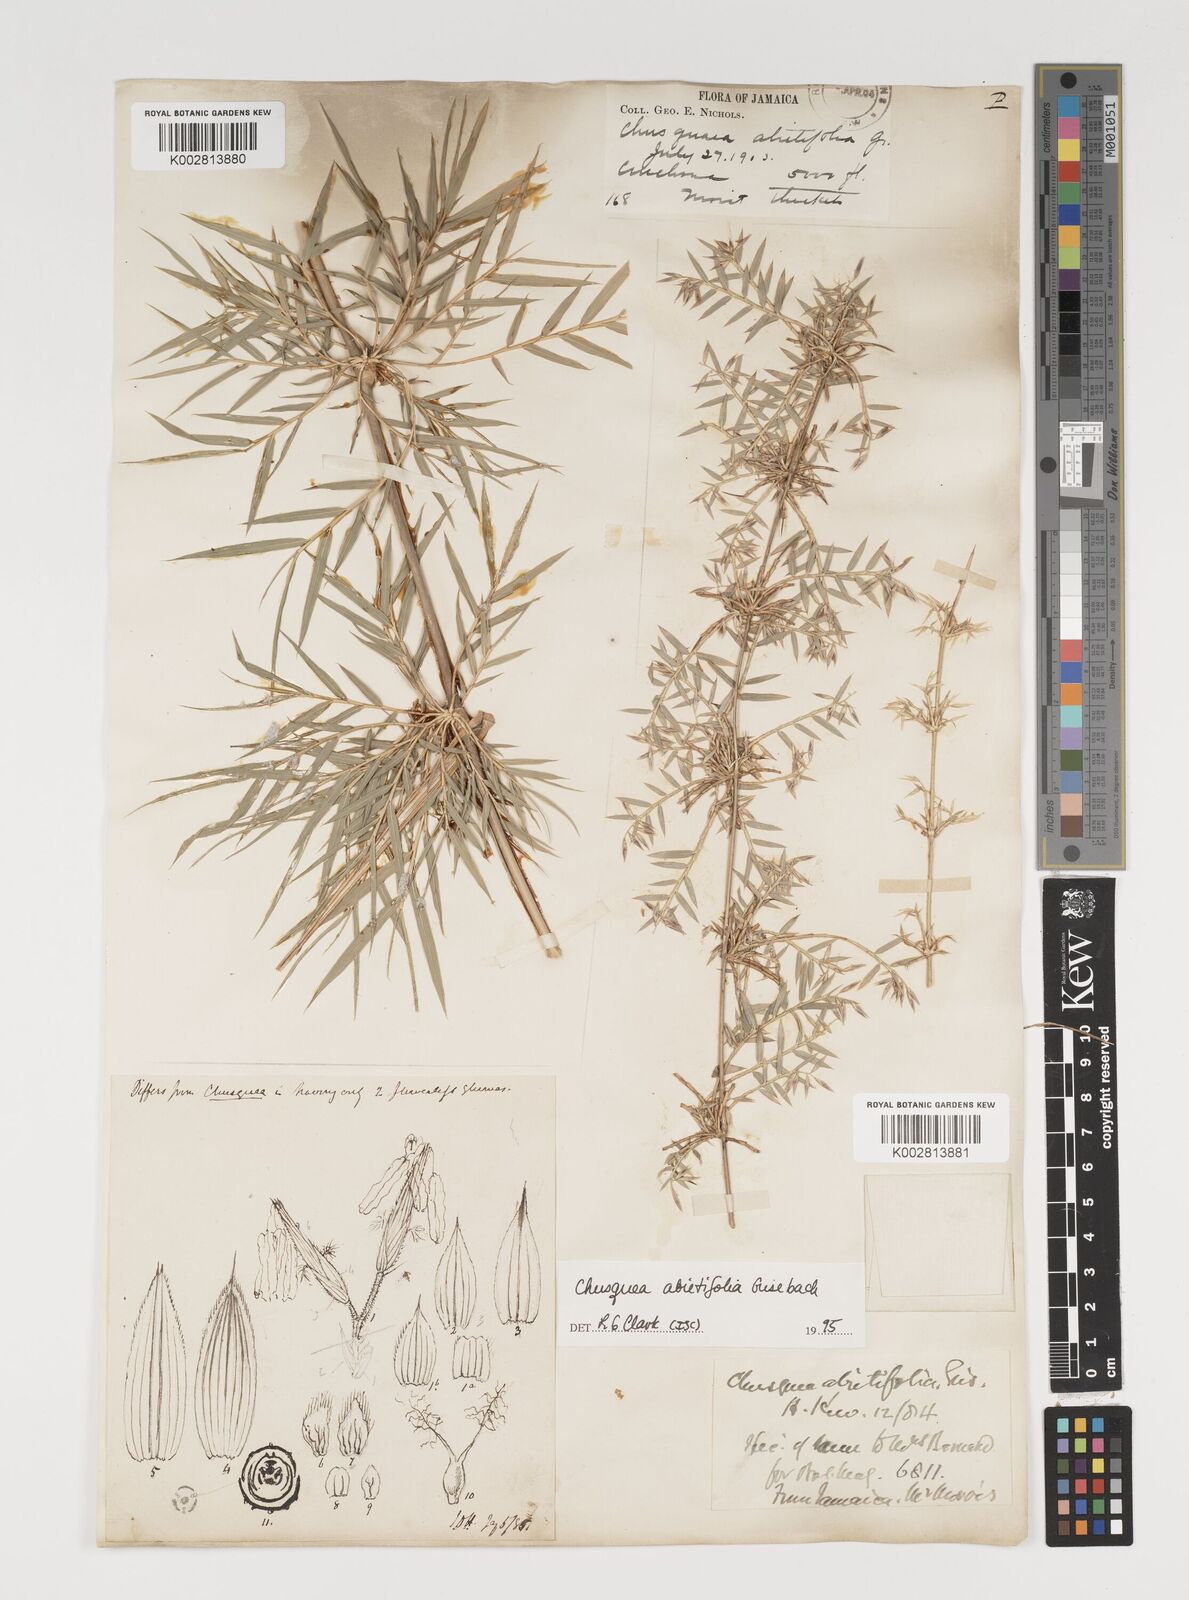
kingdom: Plantae
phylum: Tracheophyta
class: Liliopsida
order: Poales
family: Poaceae
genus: Chusquea
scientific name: Chusquea abietifolia
